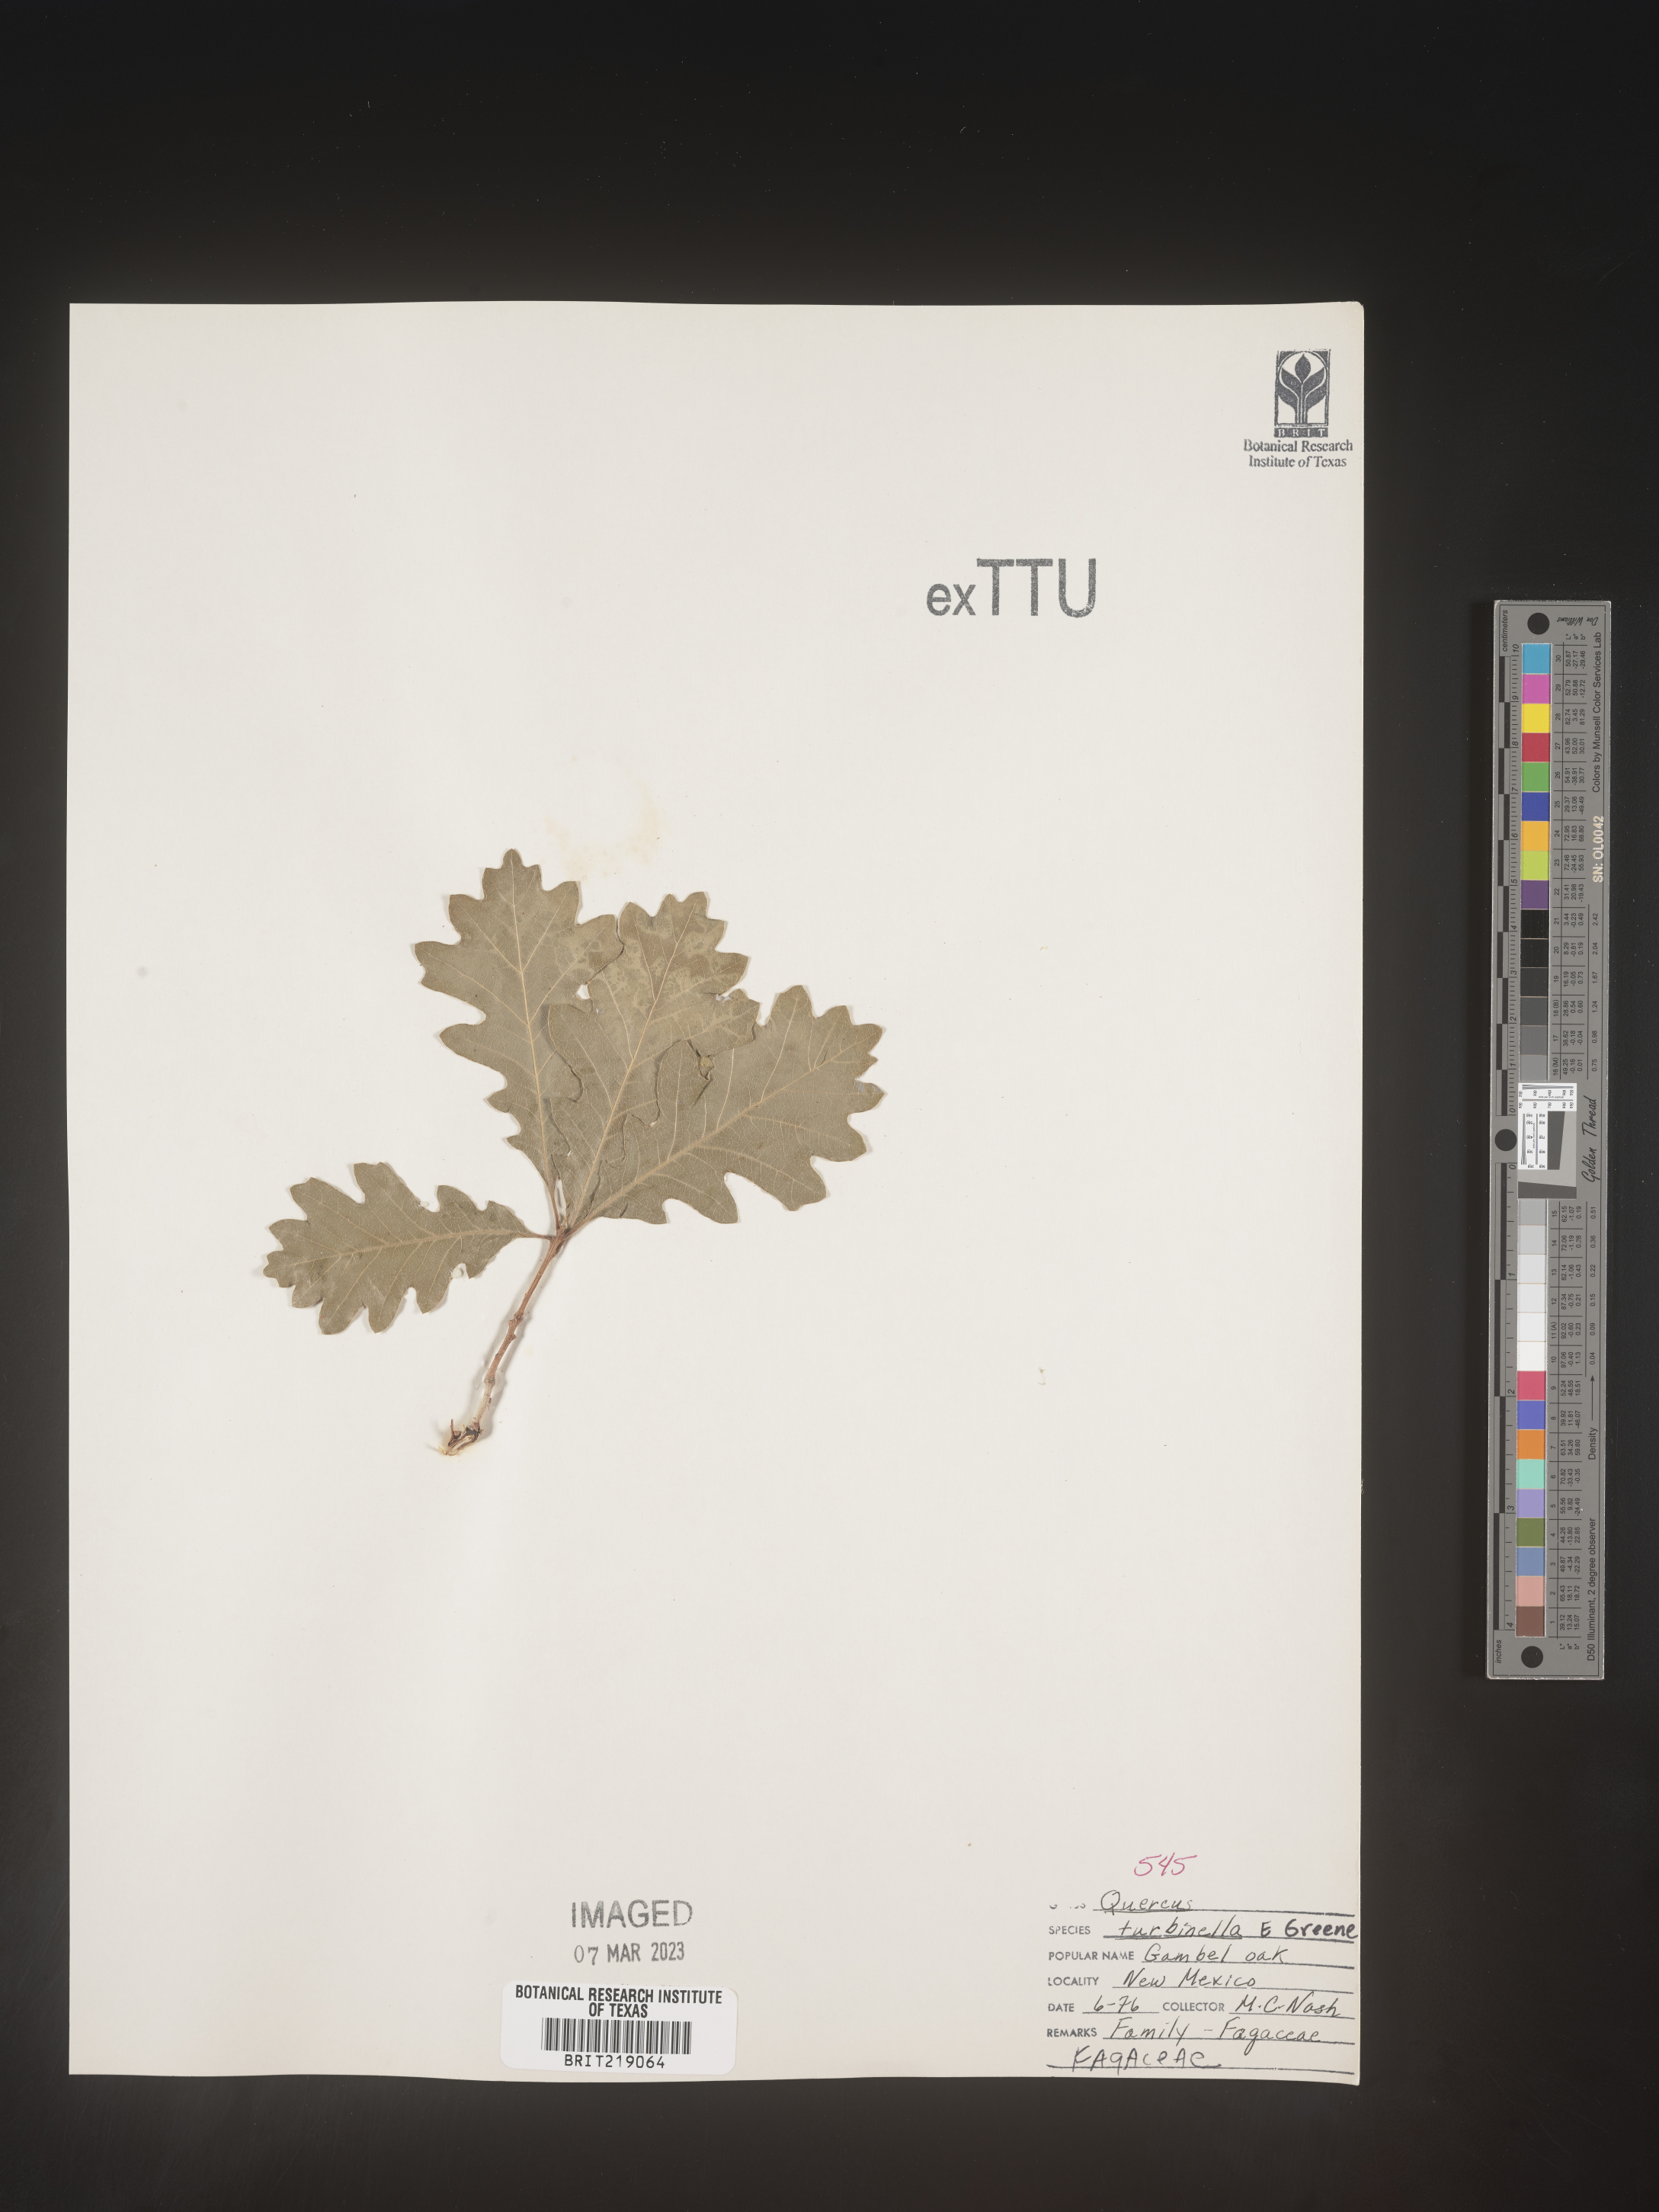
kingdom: Plantae
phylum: Tracheophyta
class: Magnoliopsida
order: Fagales
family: Fagaceae
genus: Quercus
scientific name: Quercus turbinella
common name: Sonoran scrub oak
